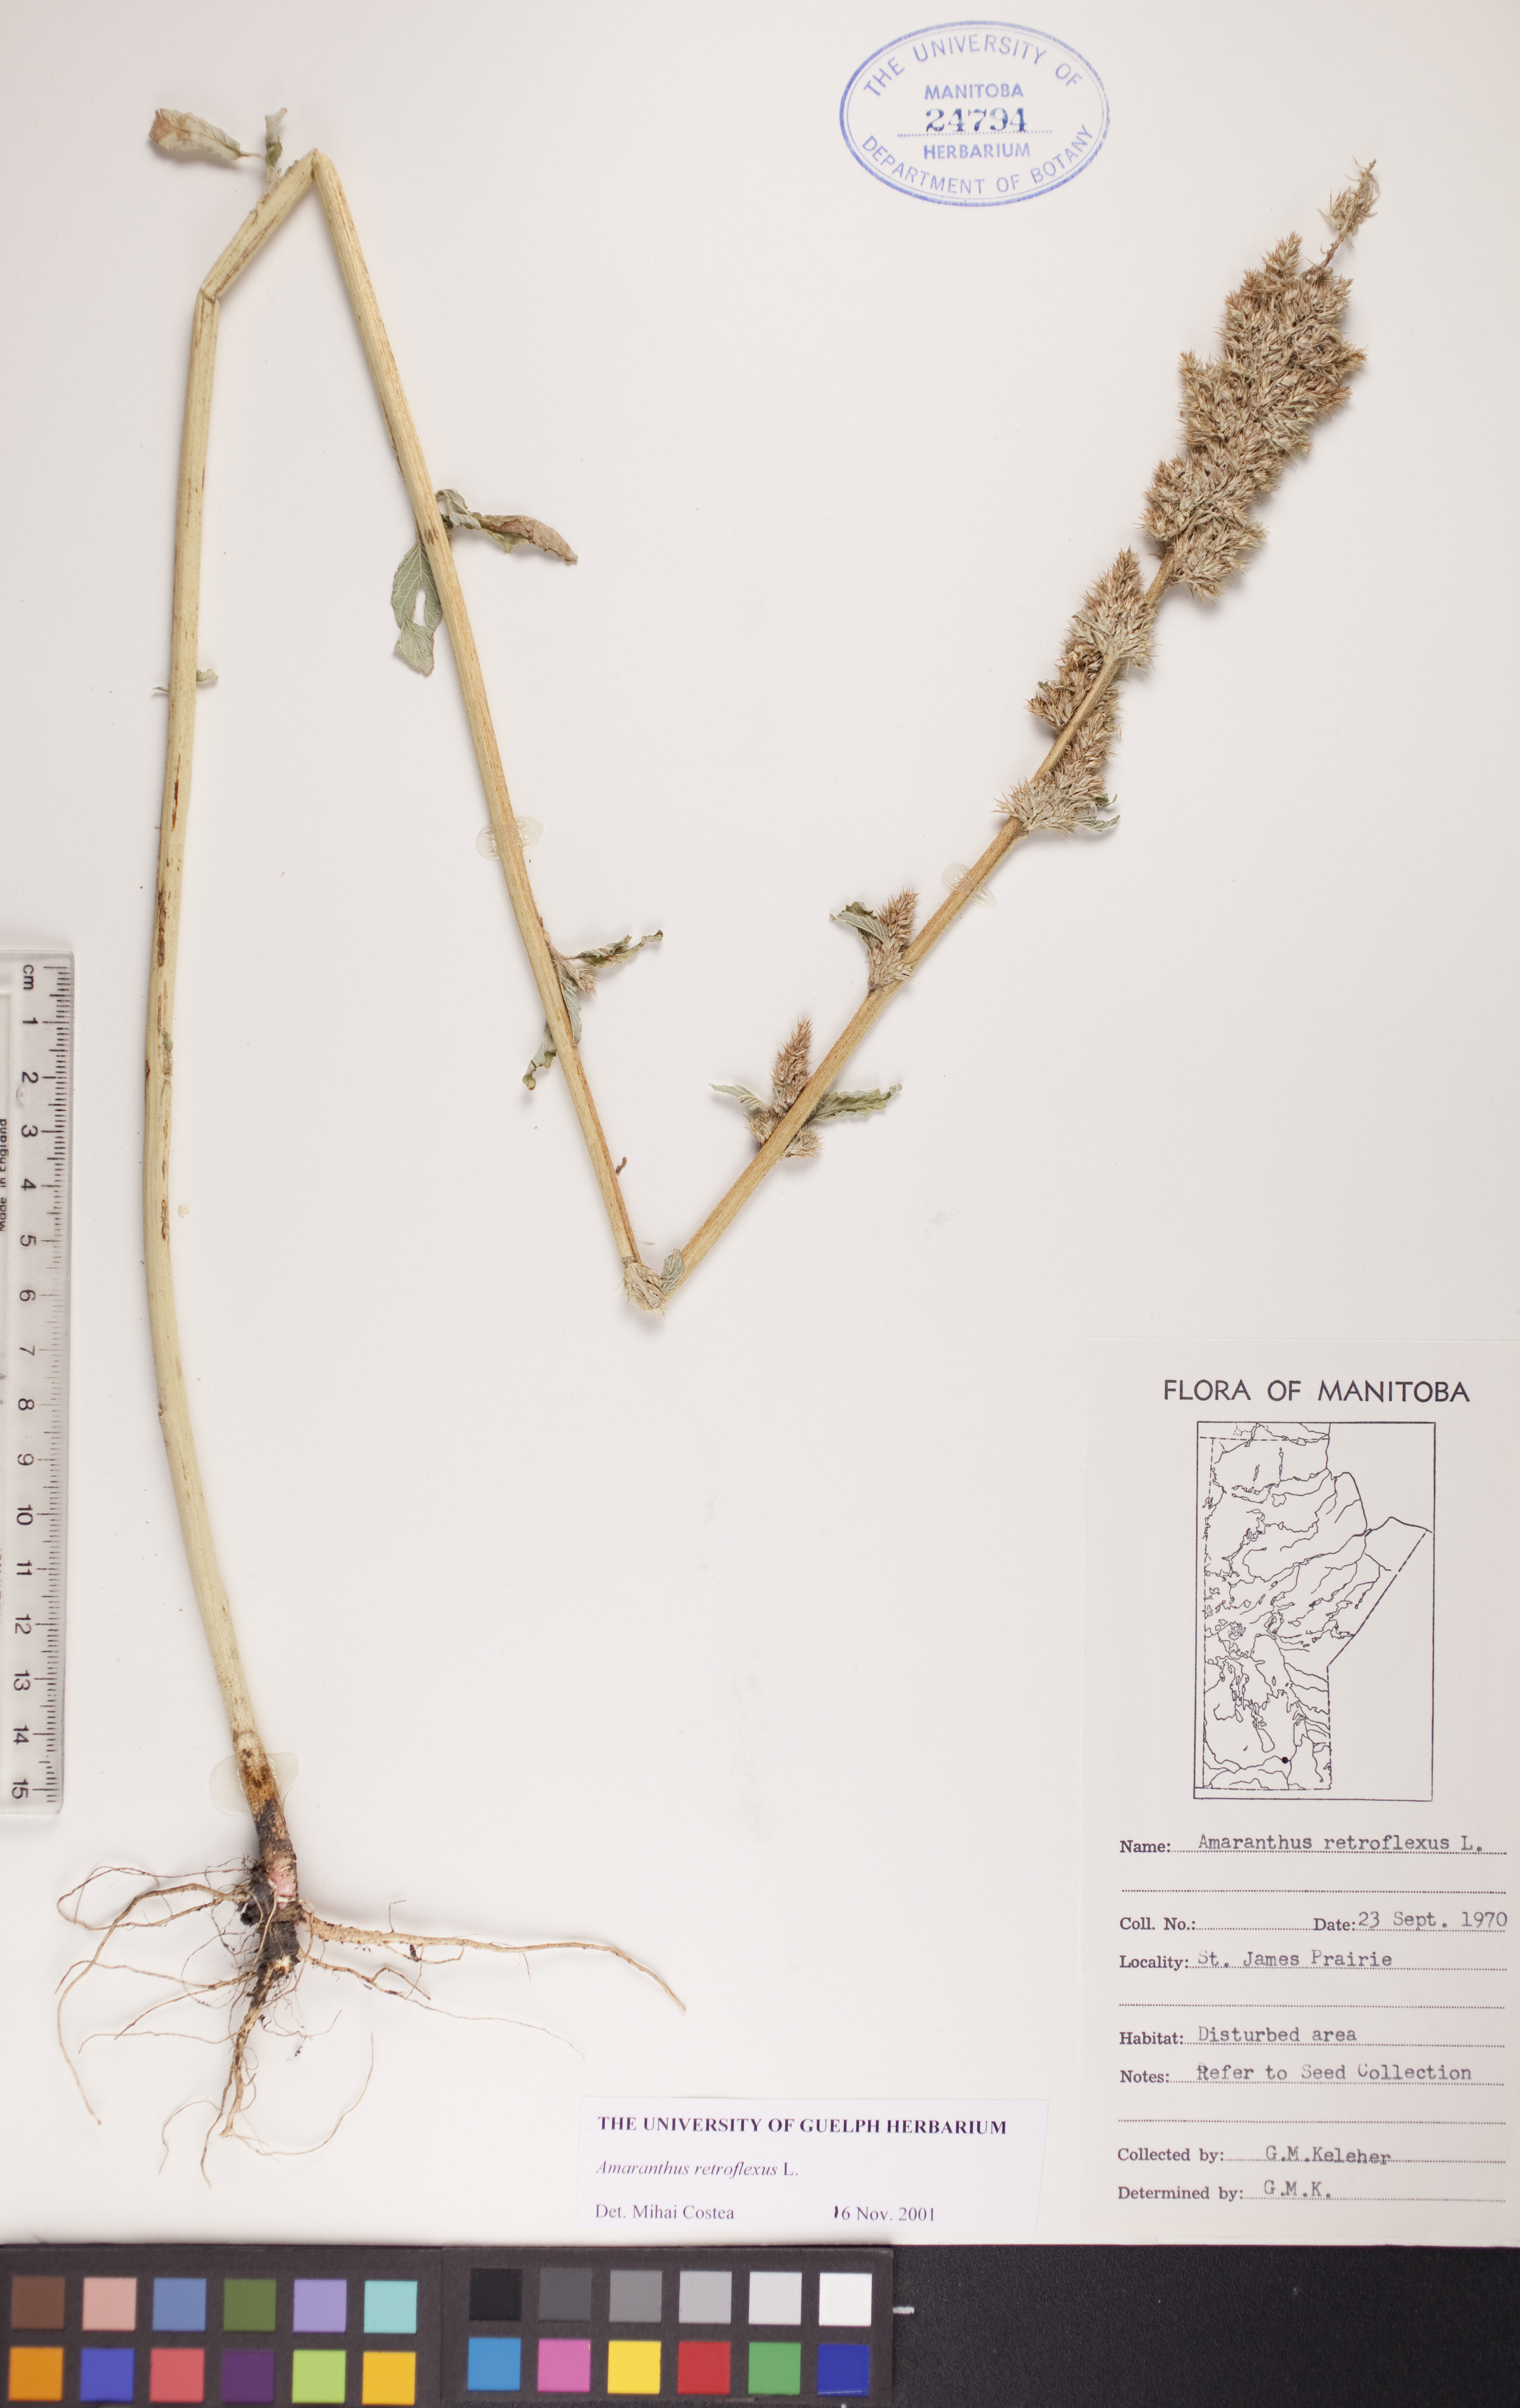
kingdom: Plantae
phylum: Tracheophyta
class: Magnoliopsida
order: Caryophyllales
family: Amaranthaceae
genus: Amaranthus
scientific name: Amaranthus retroflexus
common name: Redroot amaranth
